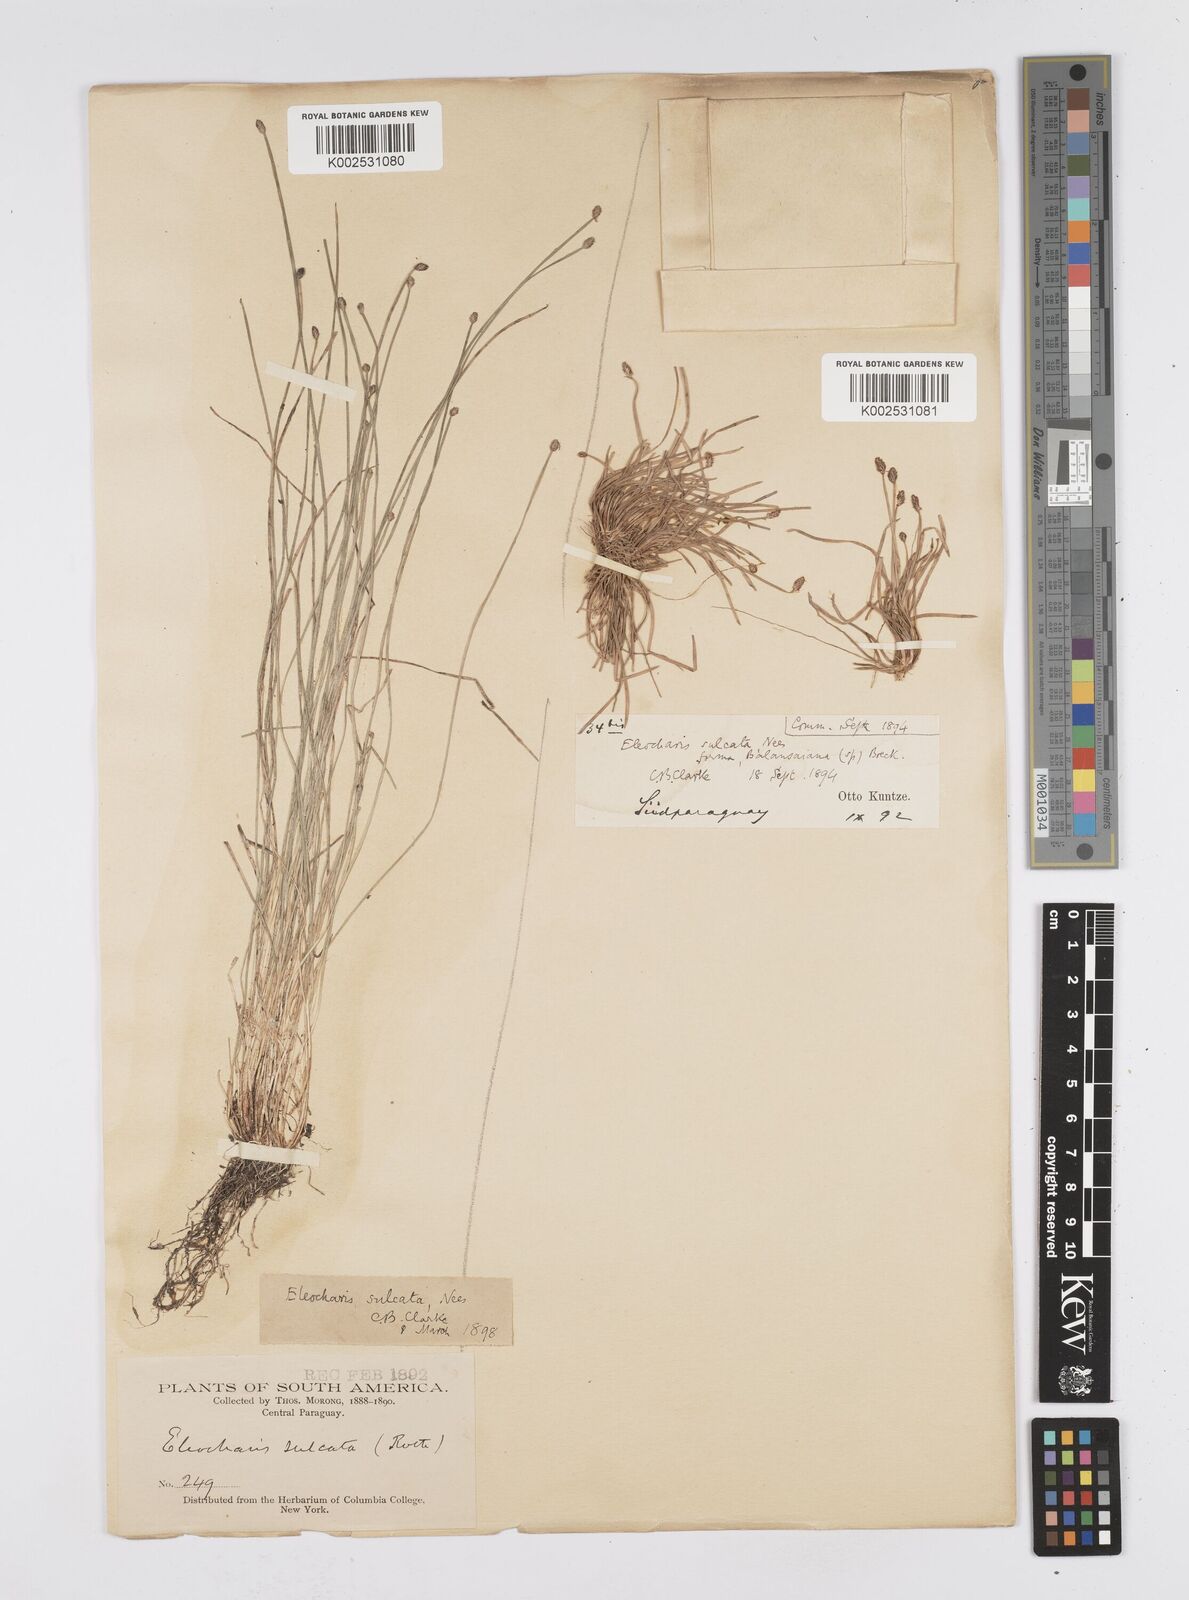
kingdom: Plantae
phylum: Tracheophyta
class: Liliopsida
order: Poales
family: Cyperaceae
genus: Eleocharis
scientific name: Eleocharis filiculmis
